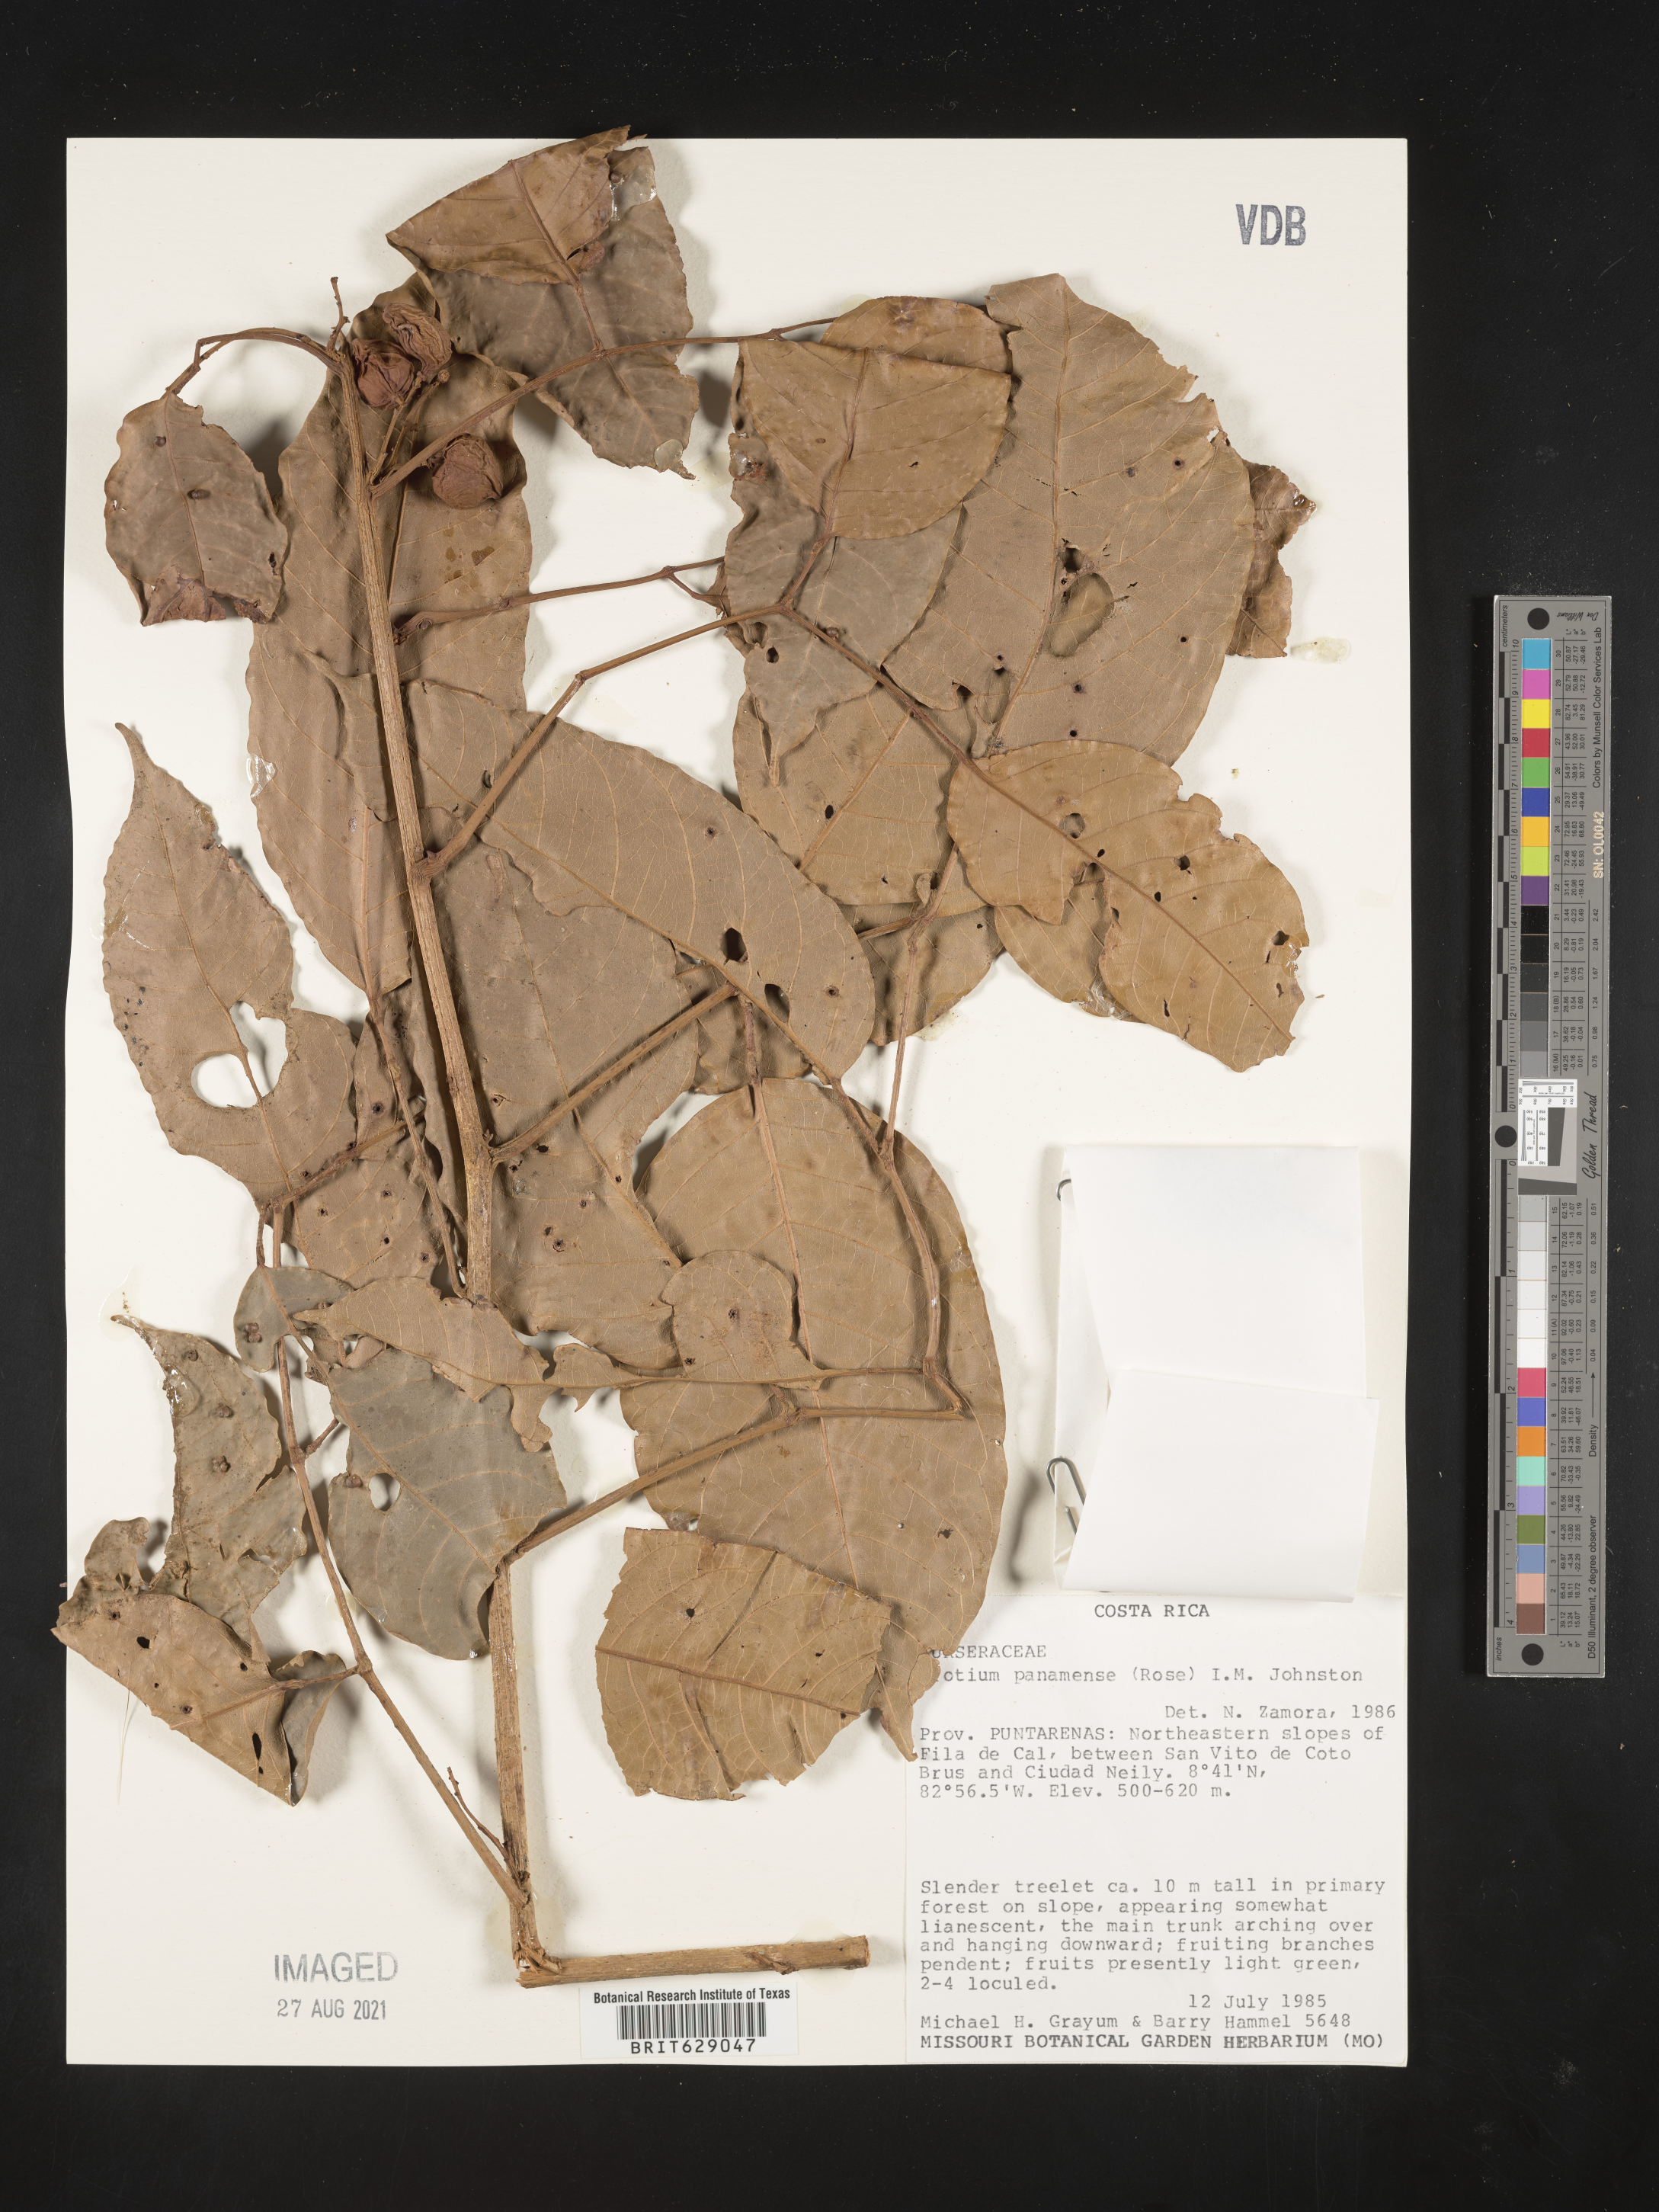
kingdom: Plantae
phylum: Tracheophyta
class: Magnoliopsida
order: Sapindales
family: Burseraceae
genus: Protium
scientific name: Protium panamense
